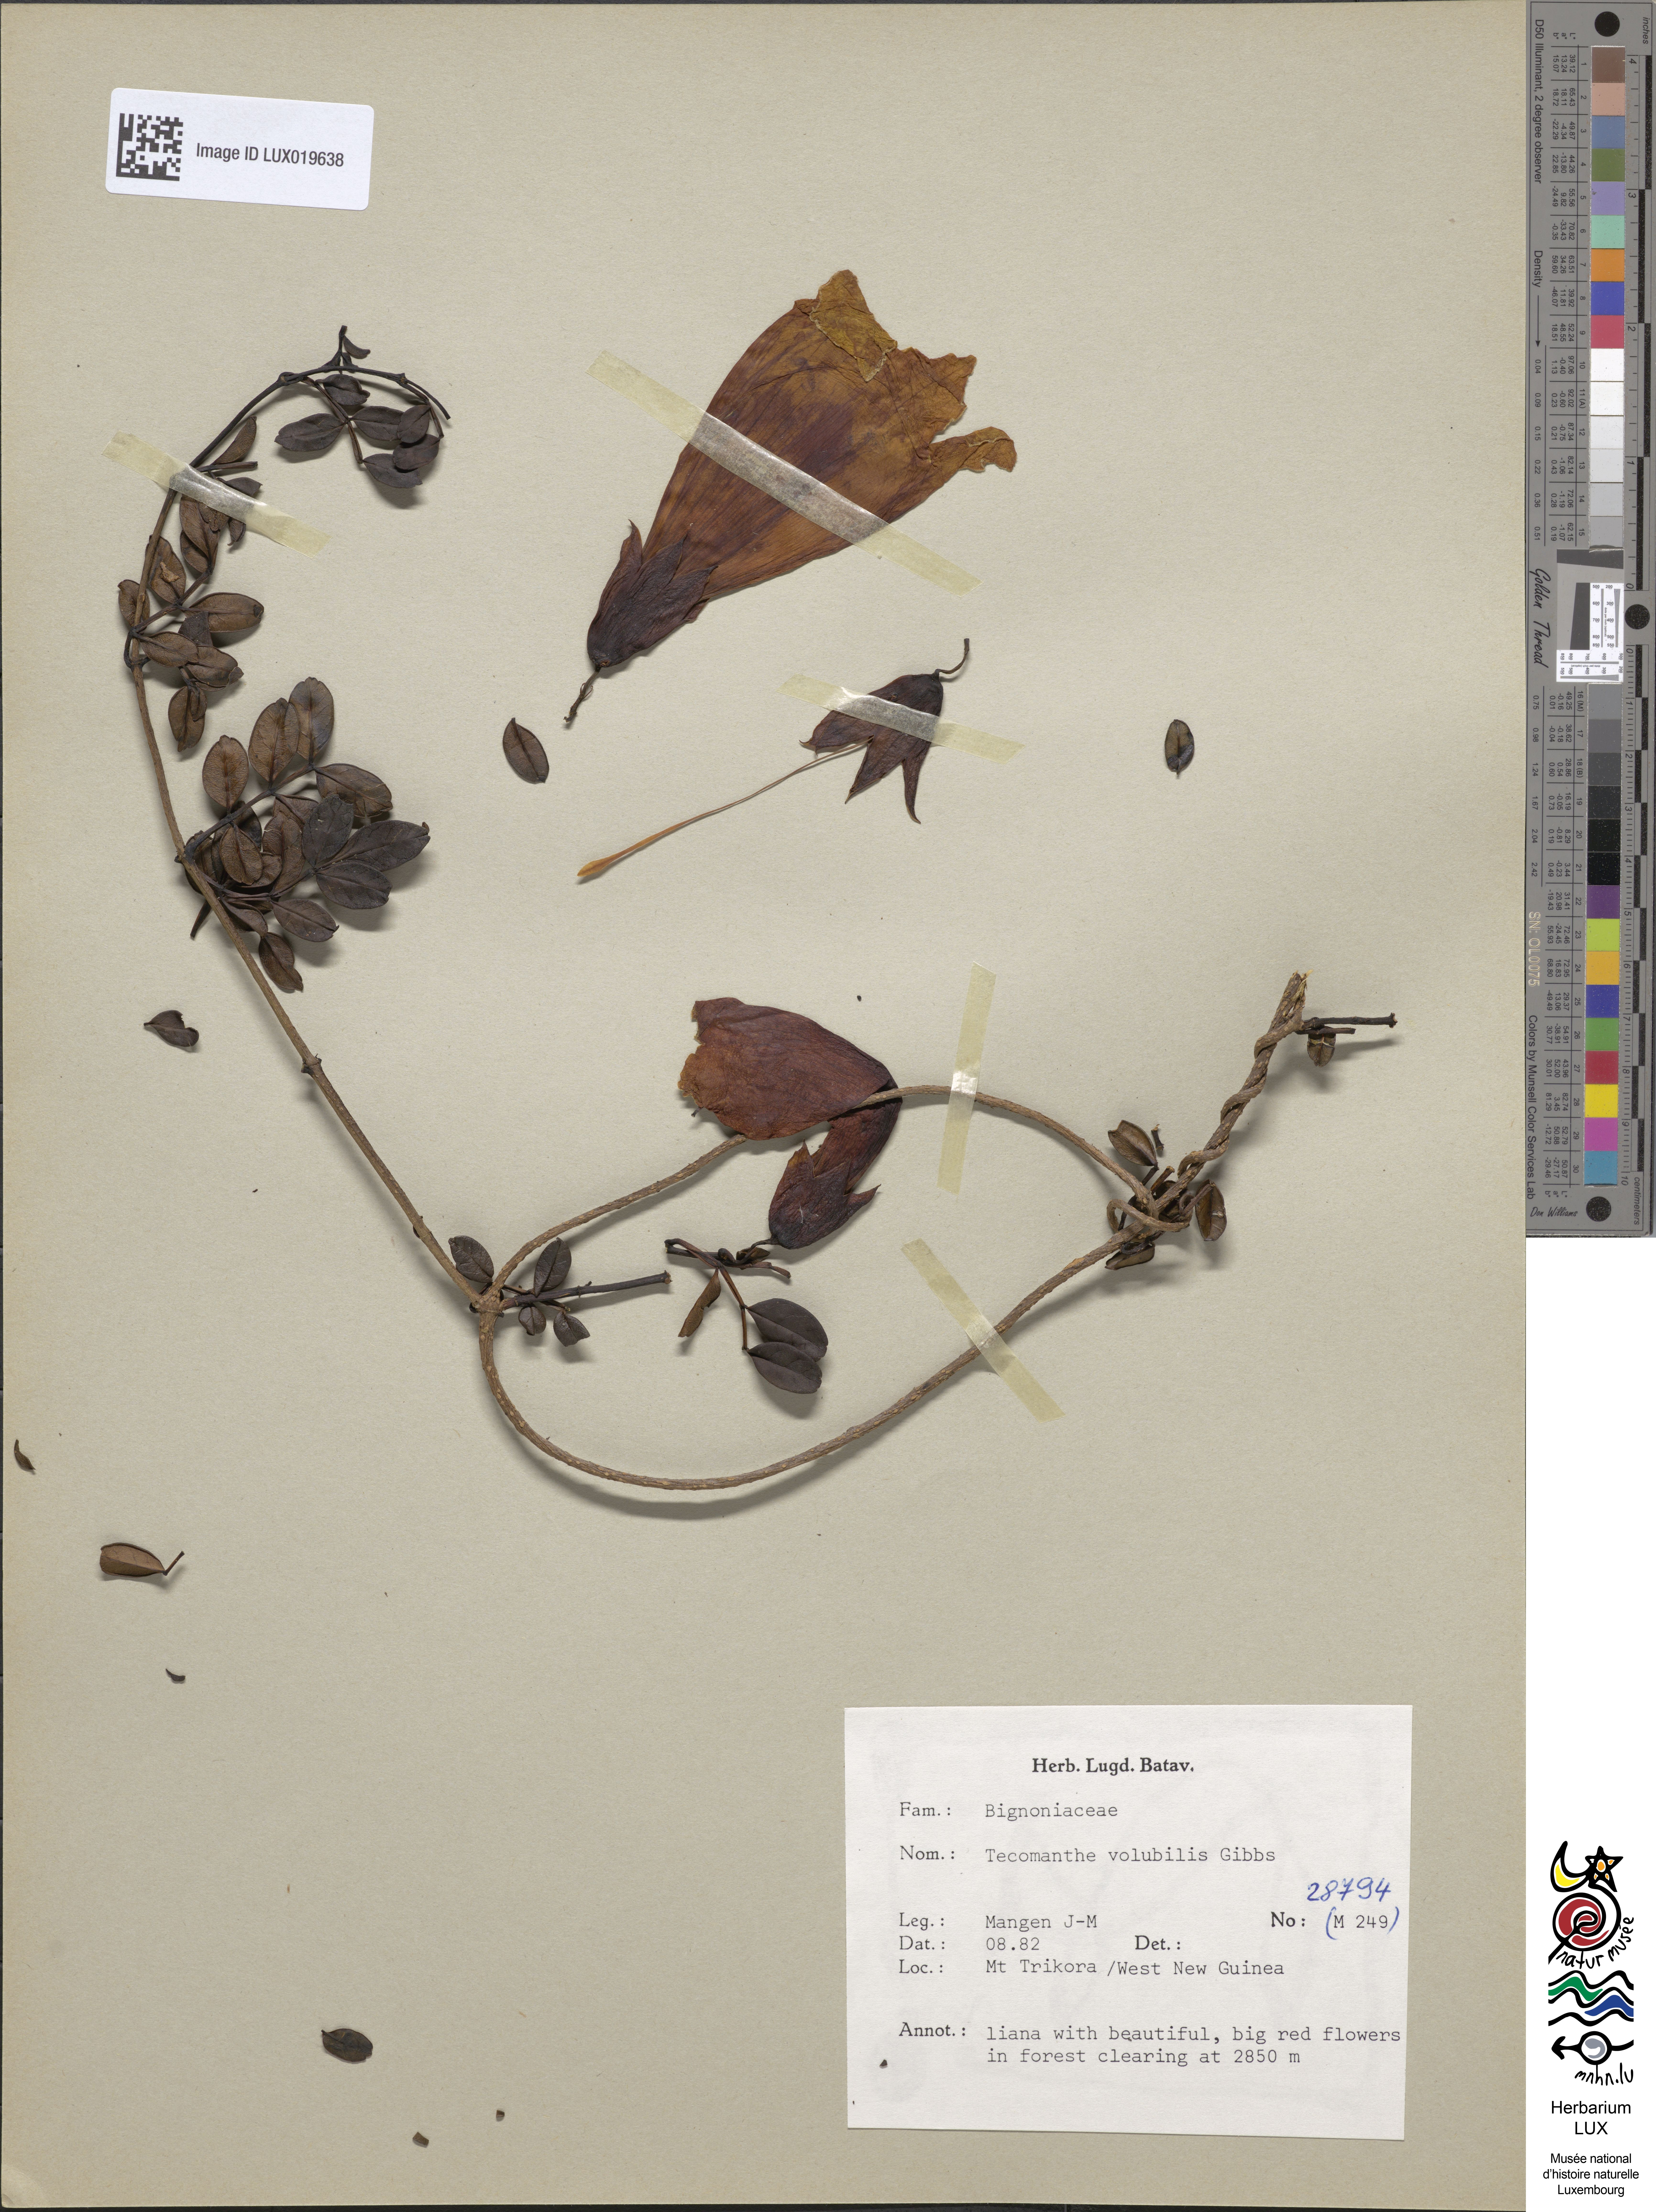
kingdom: Plantae
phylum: Tracheophyta
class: Magnoliopsida
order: Lamiales
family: Bignoniaceae
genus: Tecomanthe
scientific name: Tecomanthe volubilis
